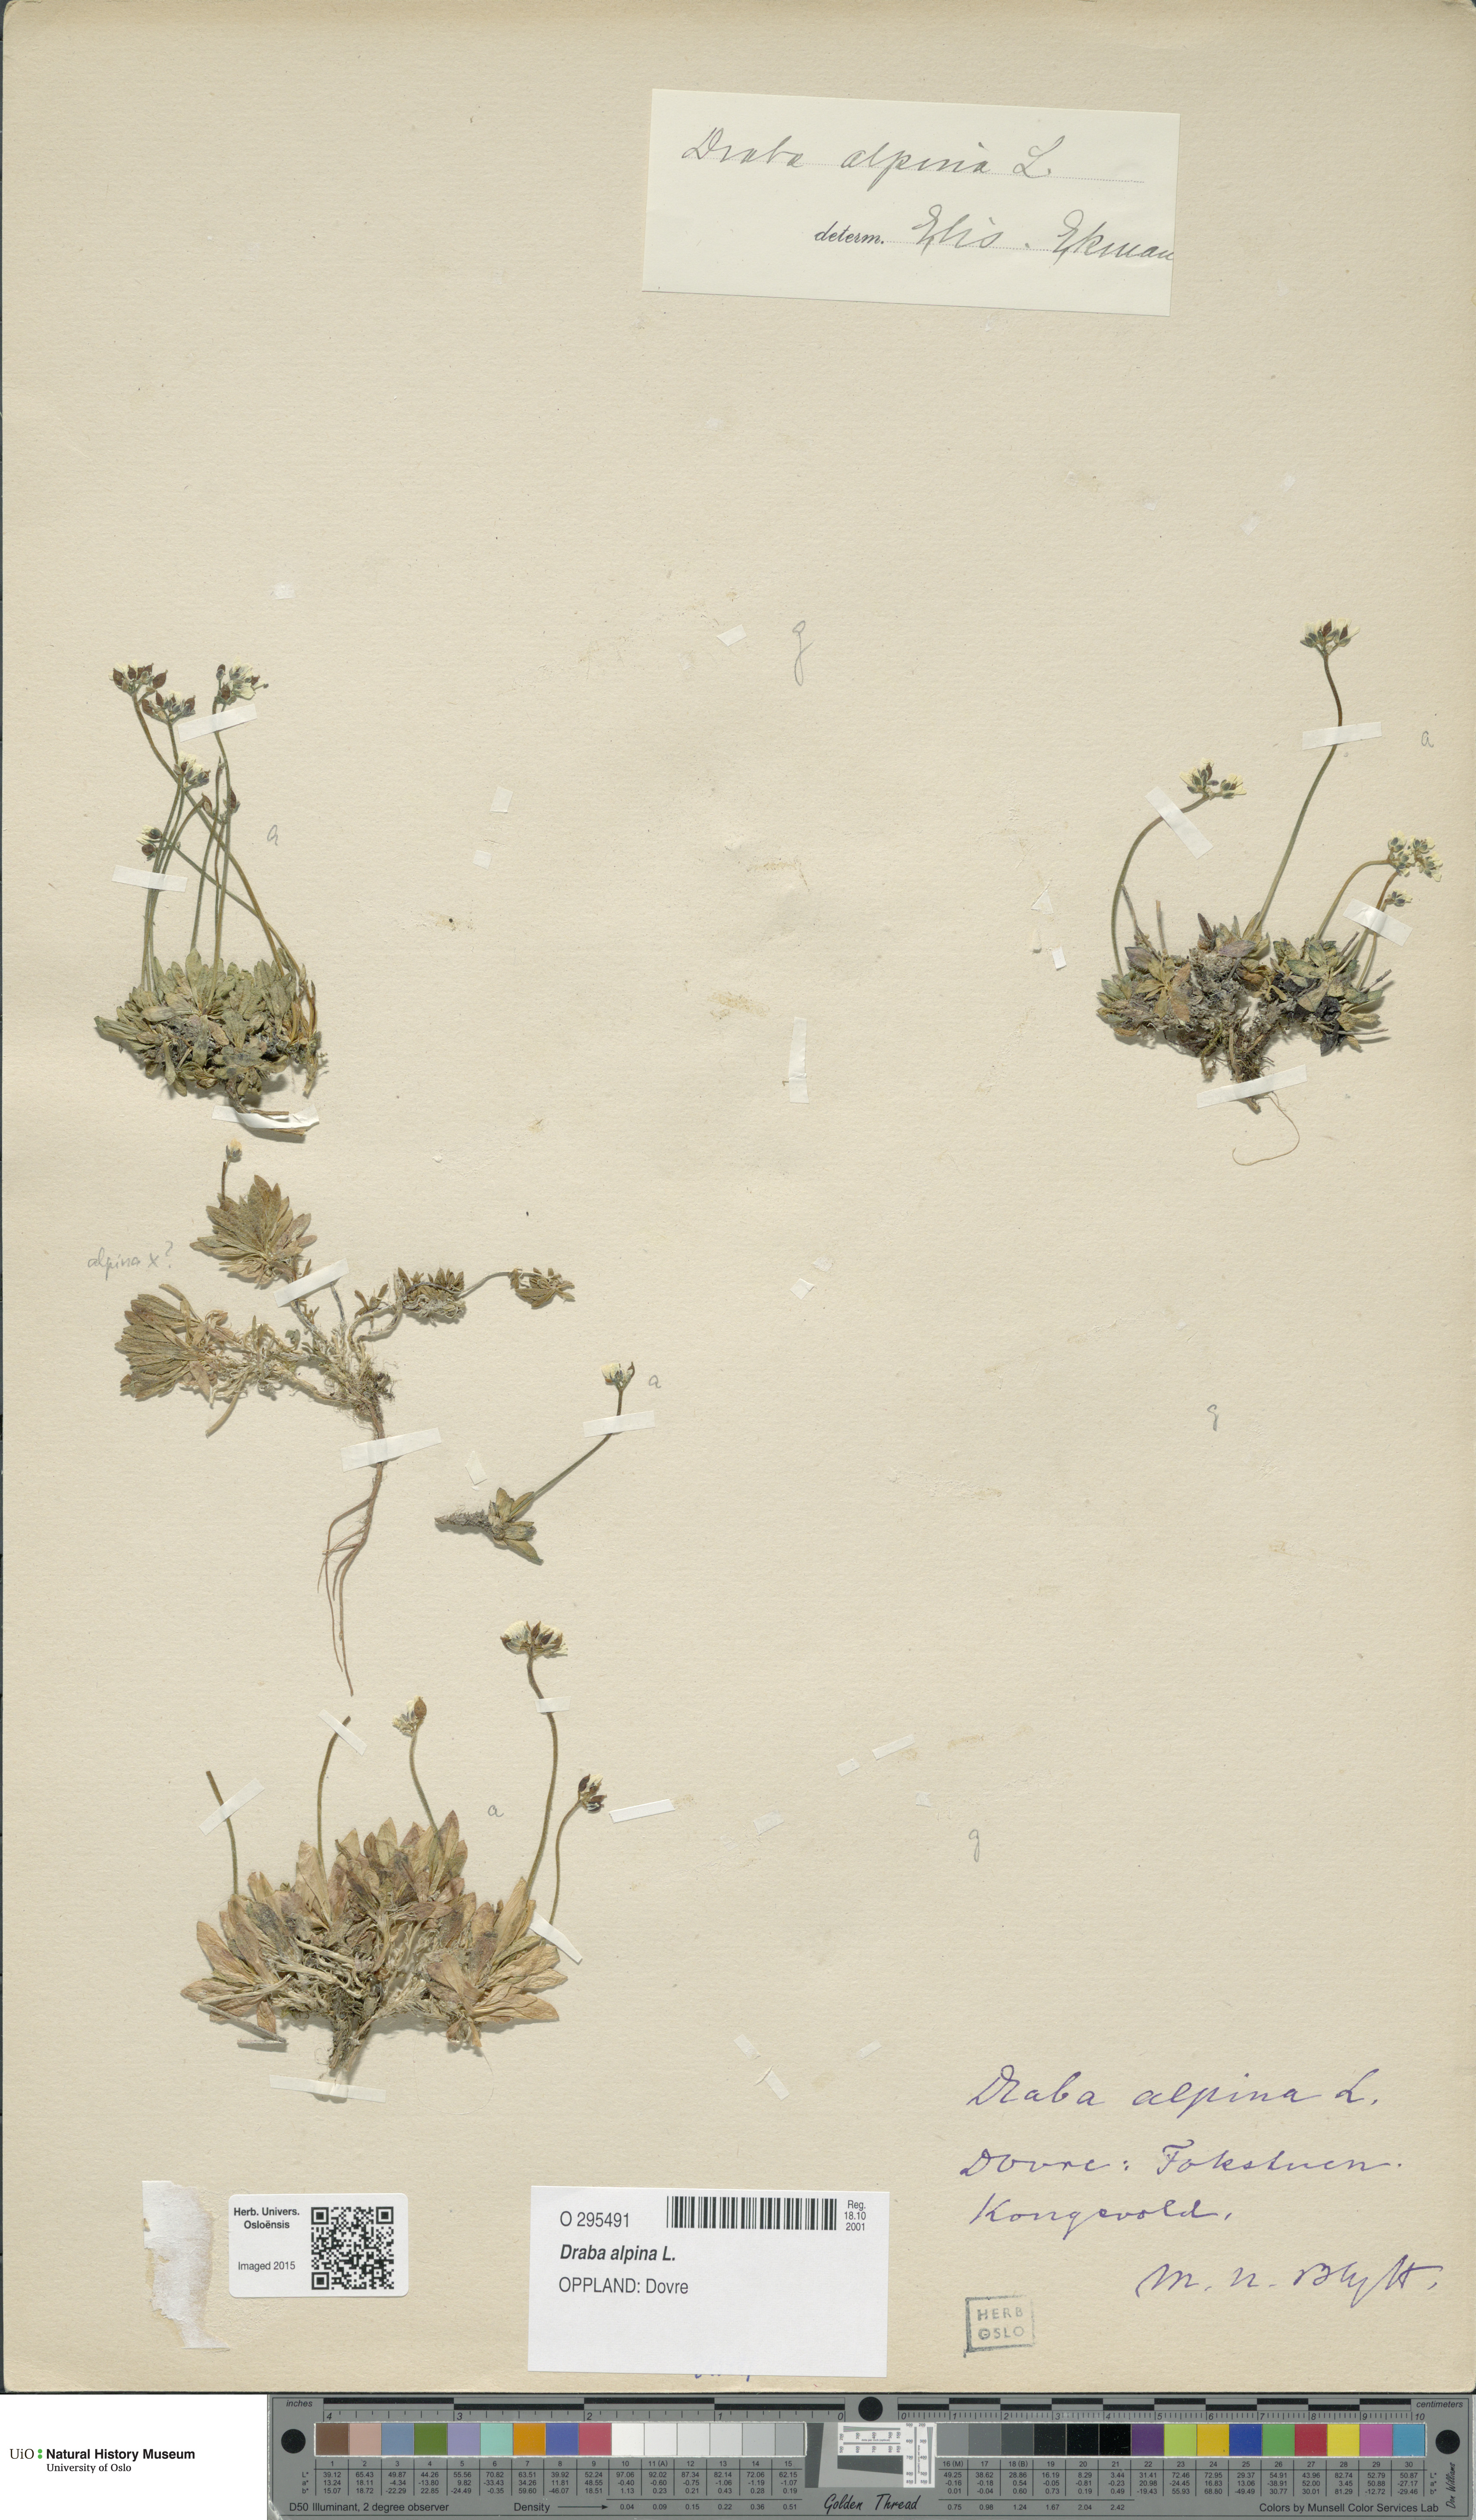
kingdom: Plantae
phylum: Tracheophyta
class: Magnoliopsida
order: Brassicales
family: Brassicaceae
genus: Draba
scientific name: Draba alpina
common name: Alpine draba
